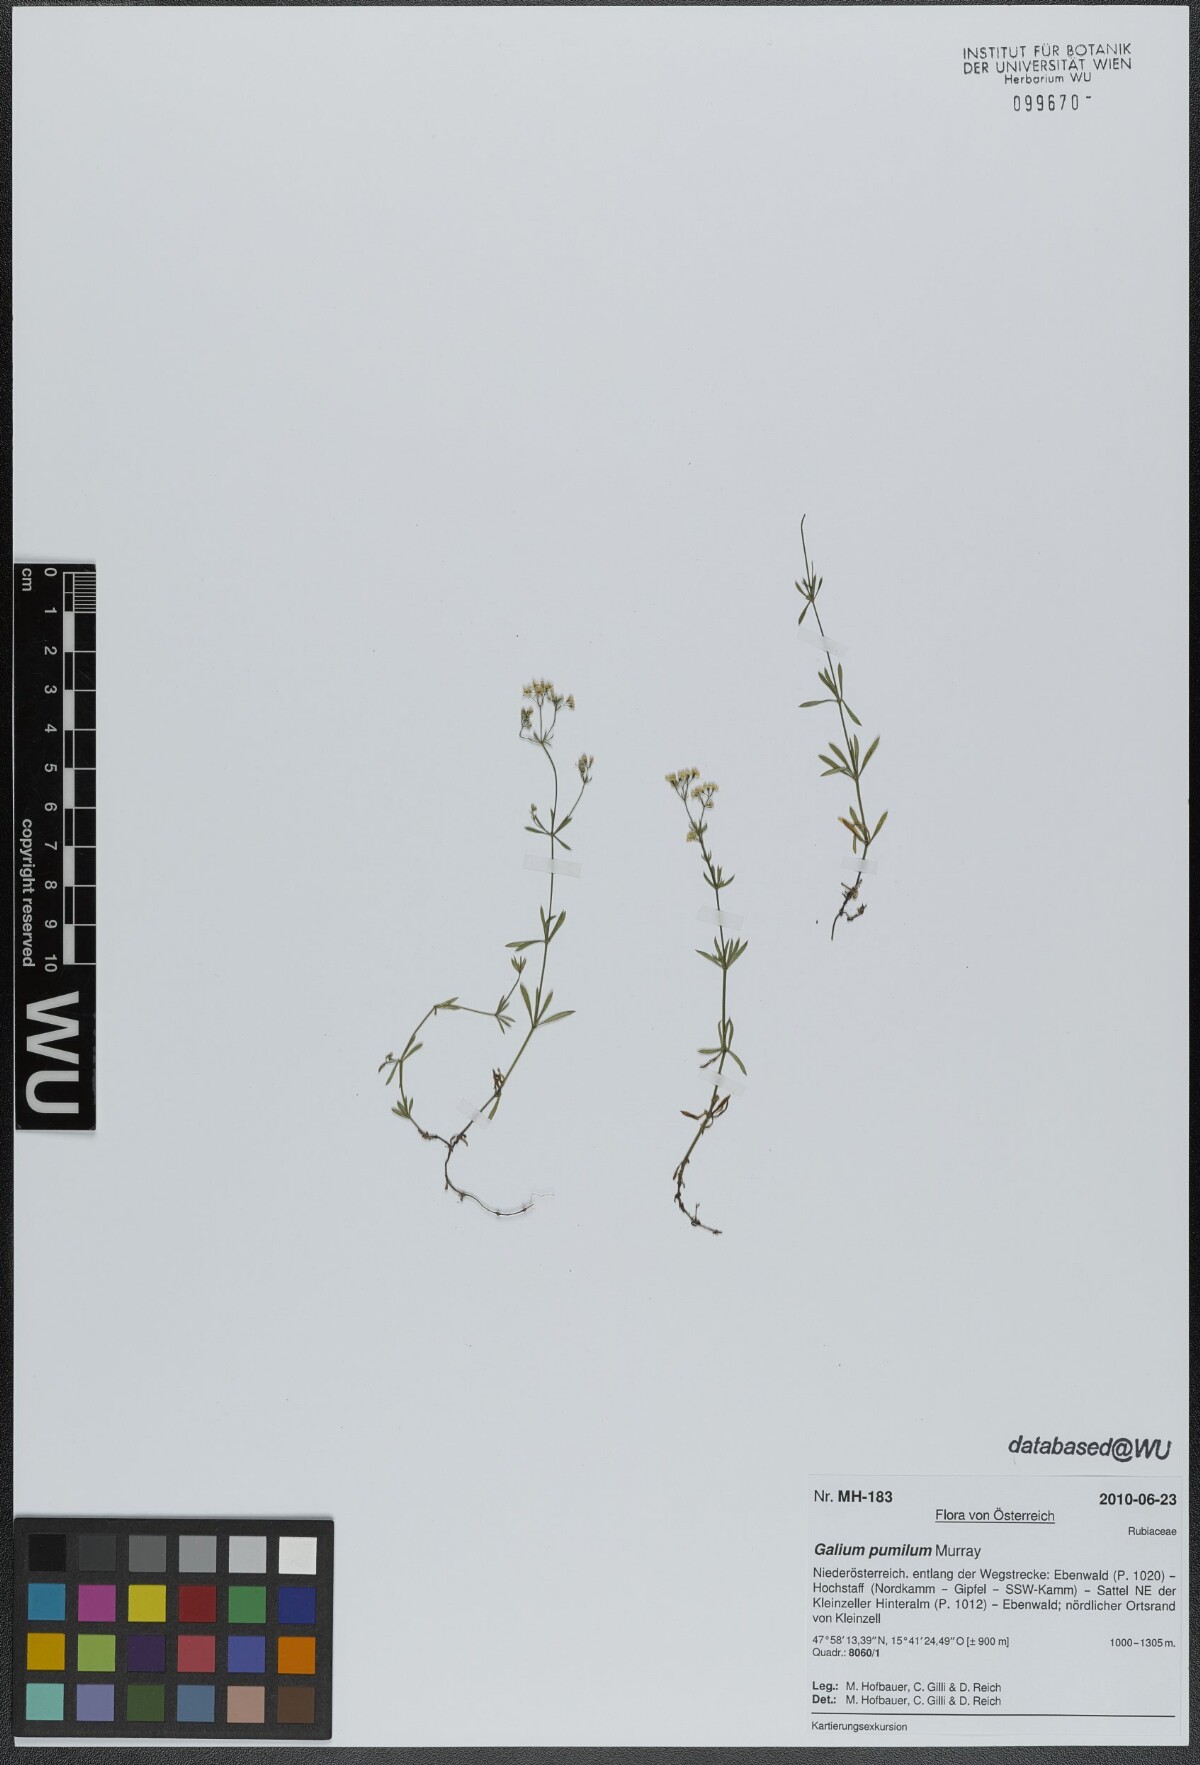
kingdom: Plantae
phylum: Tracheophyta
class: Magnoliopsida
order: Gentianales
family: Rubiaceae
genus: Galium
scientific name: Galium pumilum
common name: Slender bedstraw
